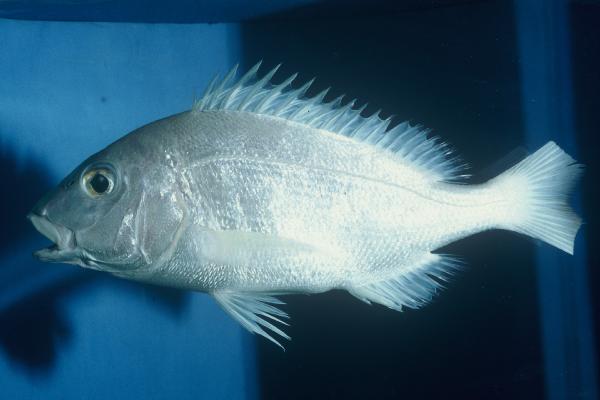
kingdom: Animalia
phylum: Chordata
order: Perciformes
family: Sparidae
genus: Pterogymnus
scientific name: Pterogymnus laniarius
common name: Panga
